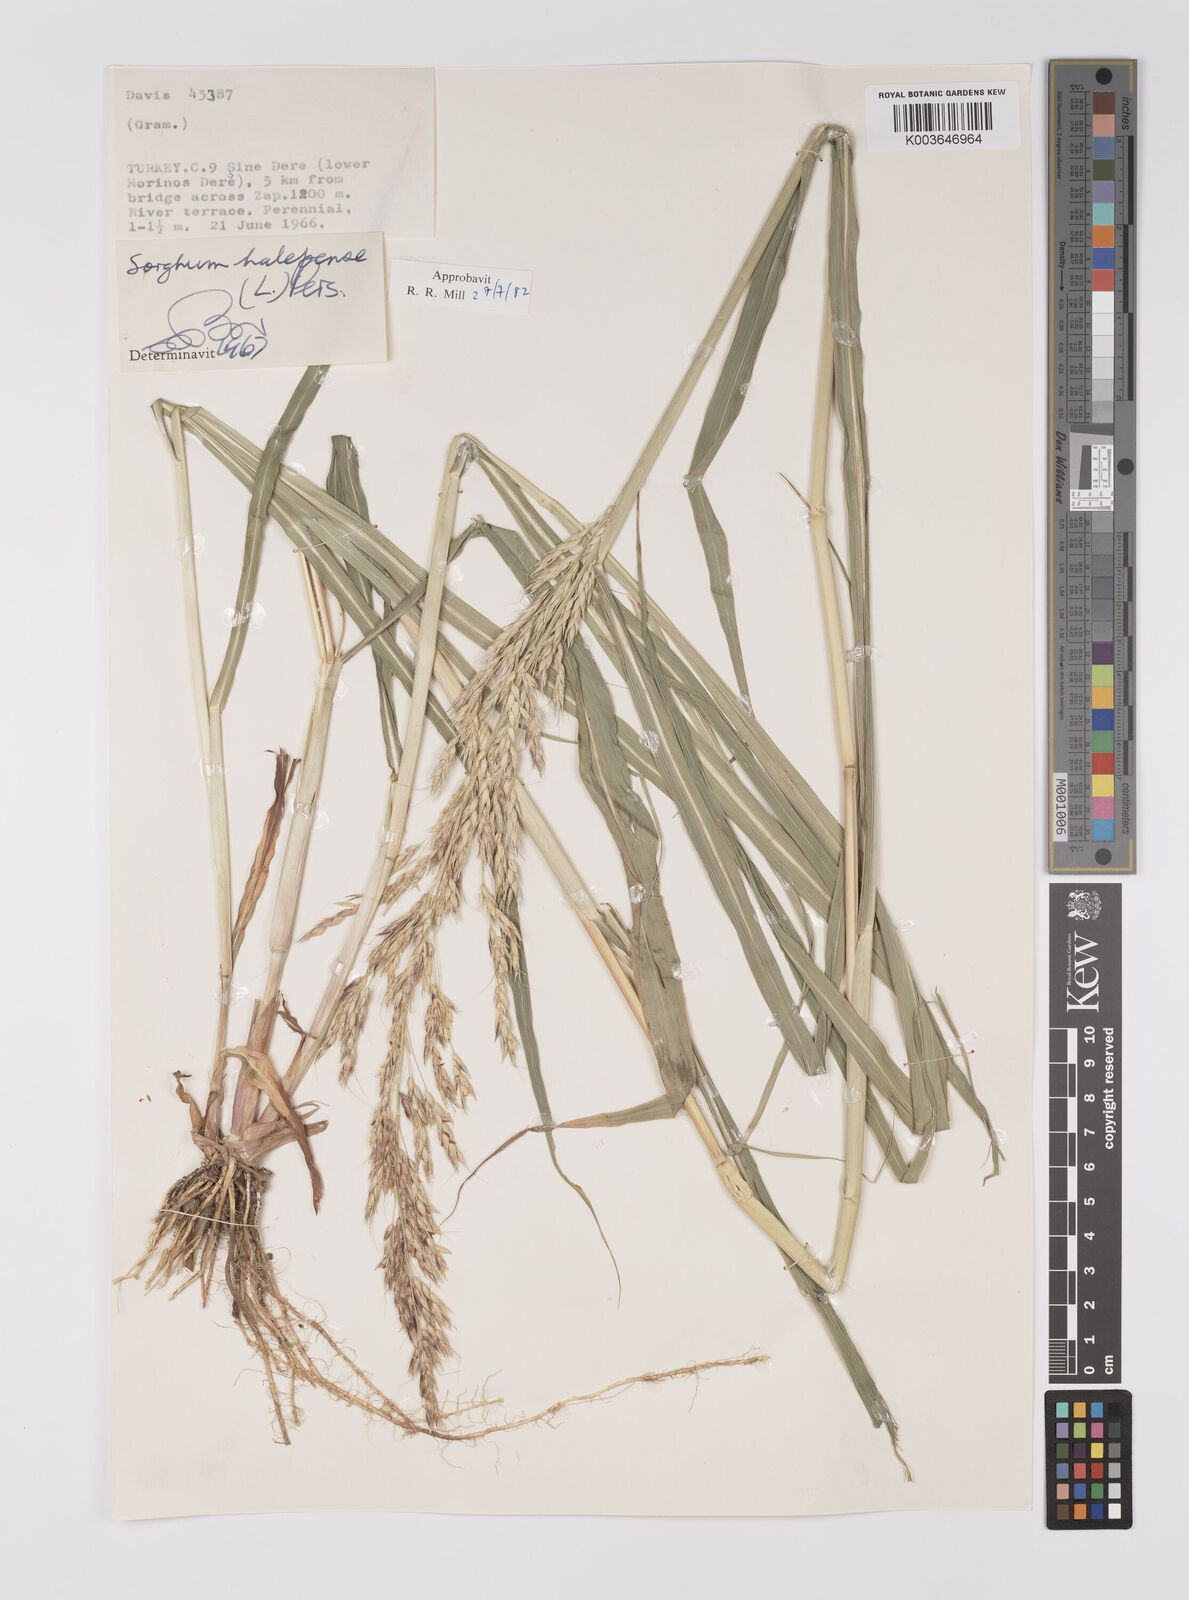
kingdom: Plantae
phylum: Tracheophyta
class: Liliopsida
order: Poales
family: Poaceae
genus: Sorghum
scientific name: Sorghum halepense
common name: Johnson-grass
